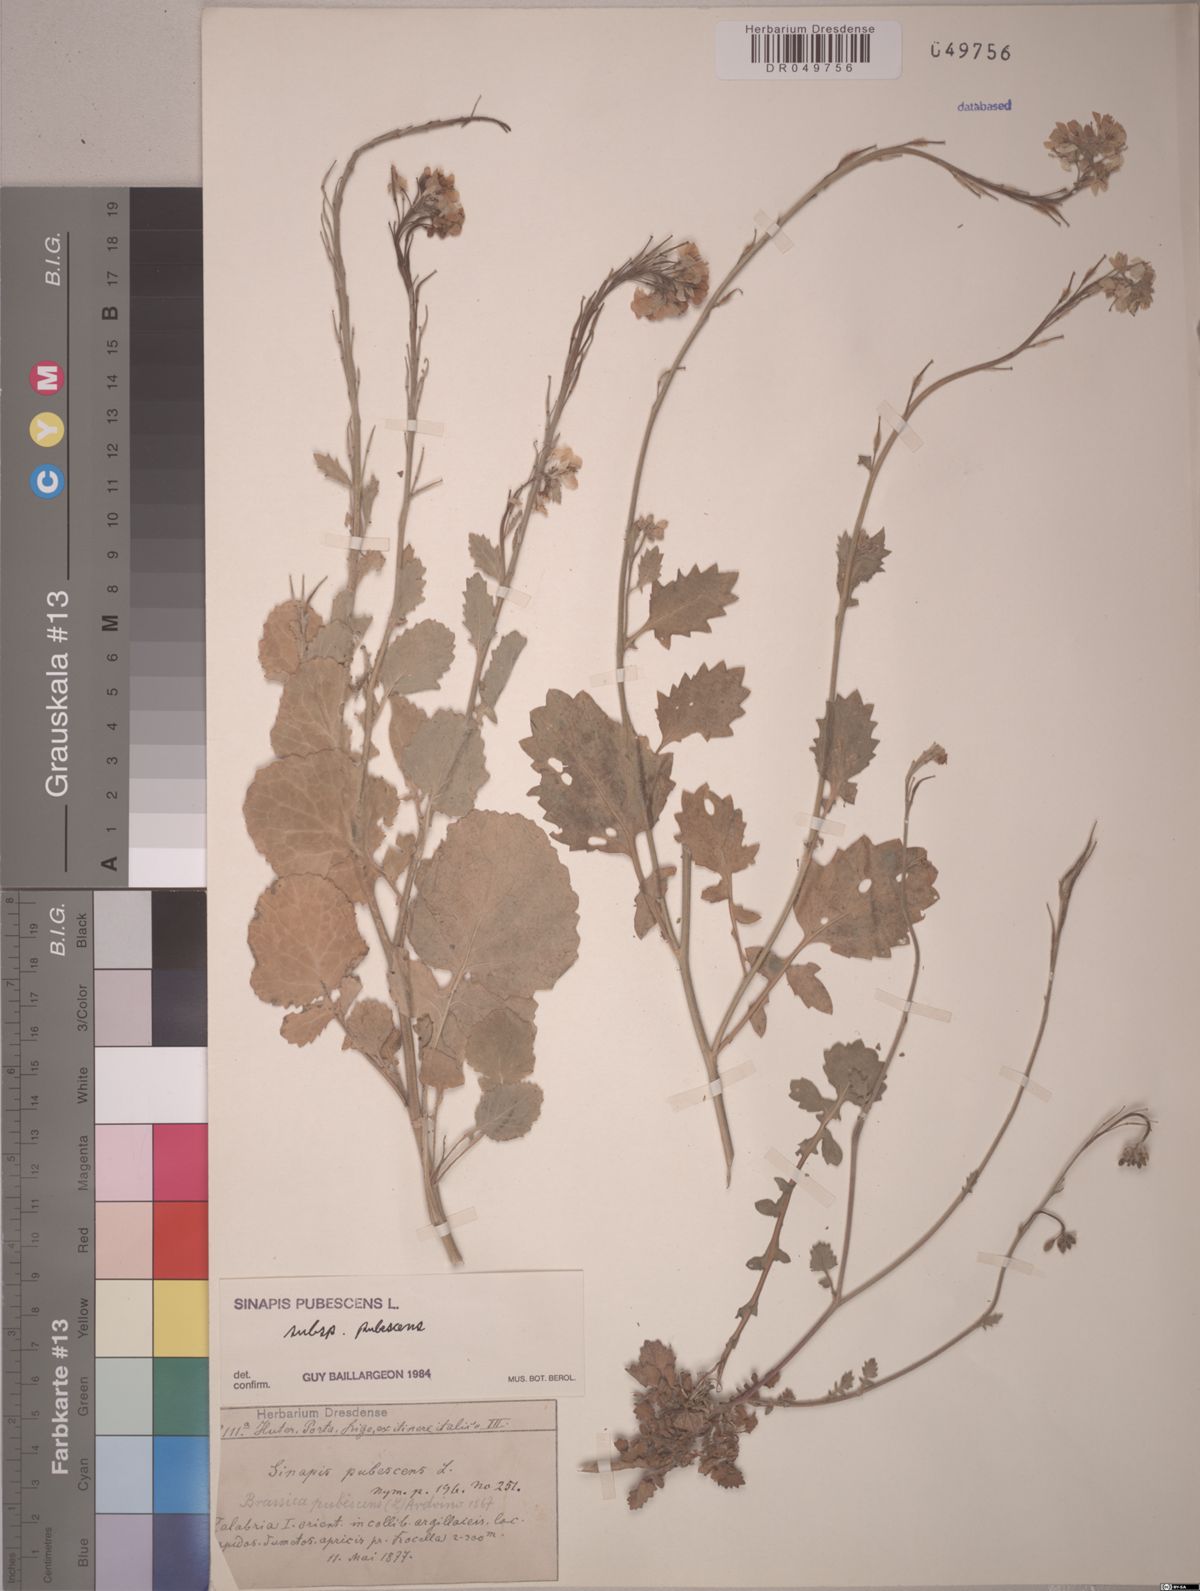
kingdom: Plantae
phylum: Tracheophyta
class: Magnoliopsida
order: Brassicales
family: Brassicaceae
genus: Sinapis
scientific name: Sinapis pubescens
